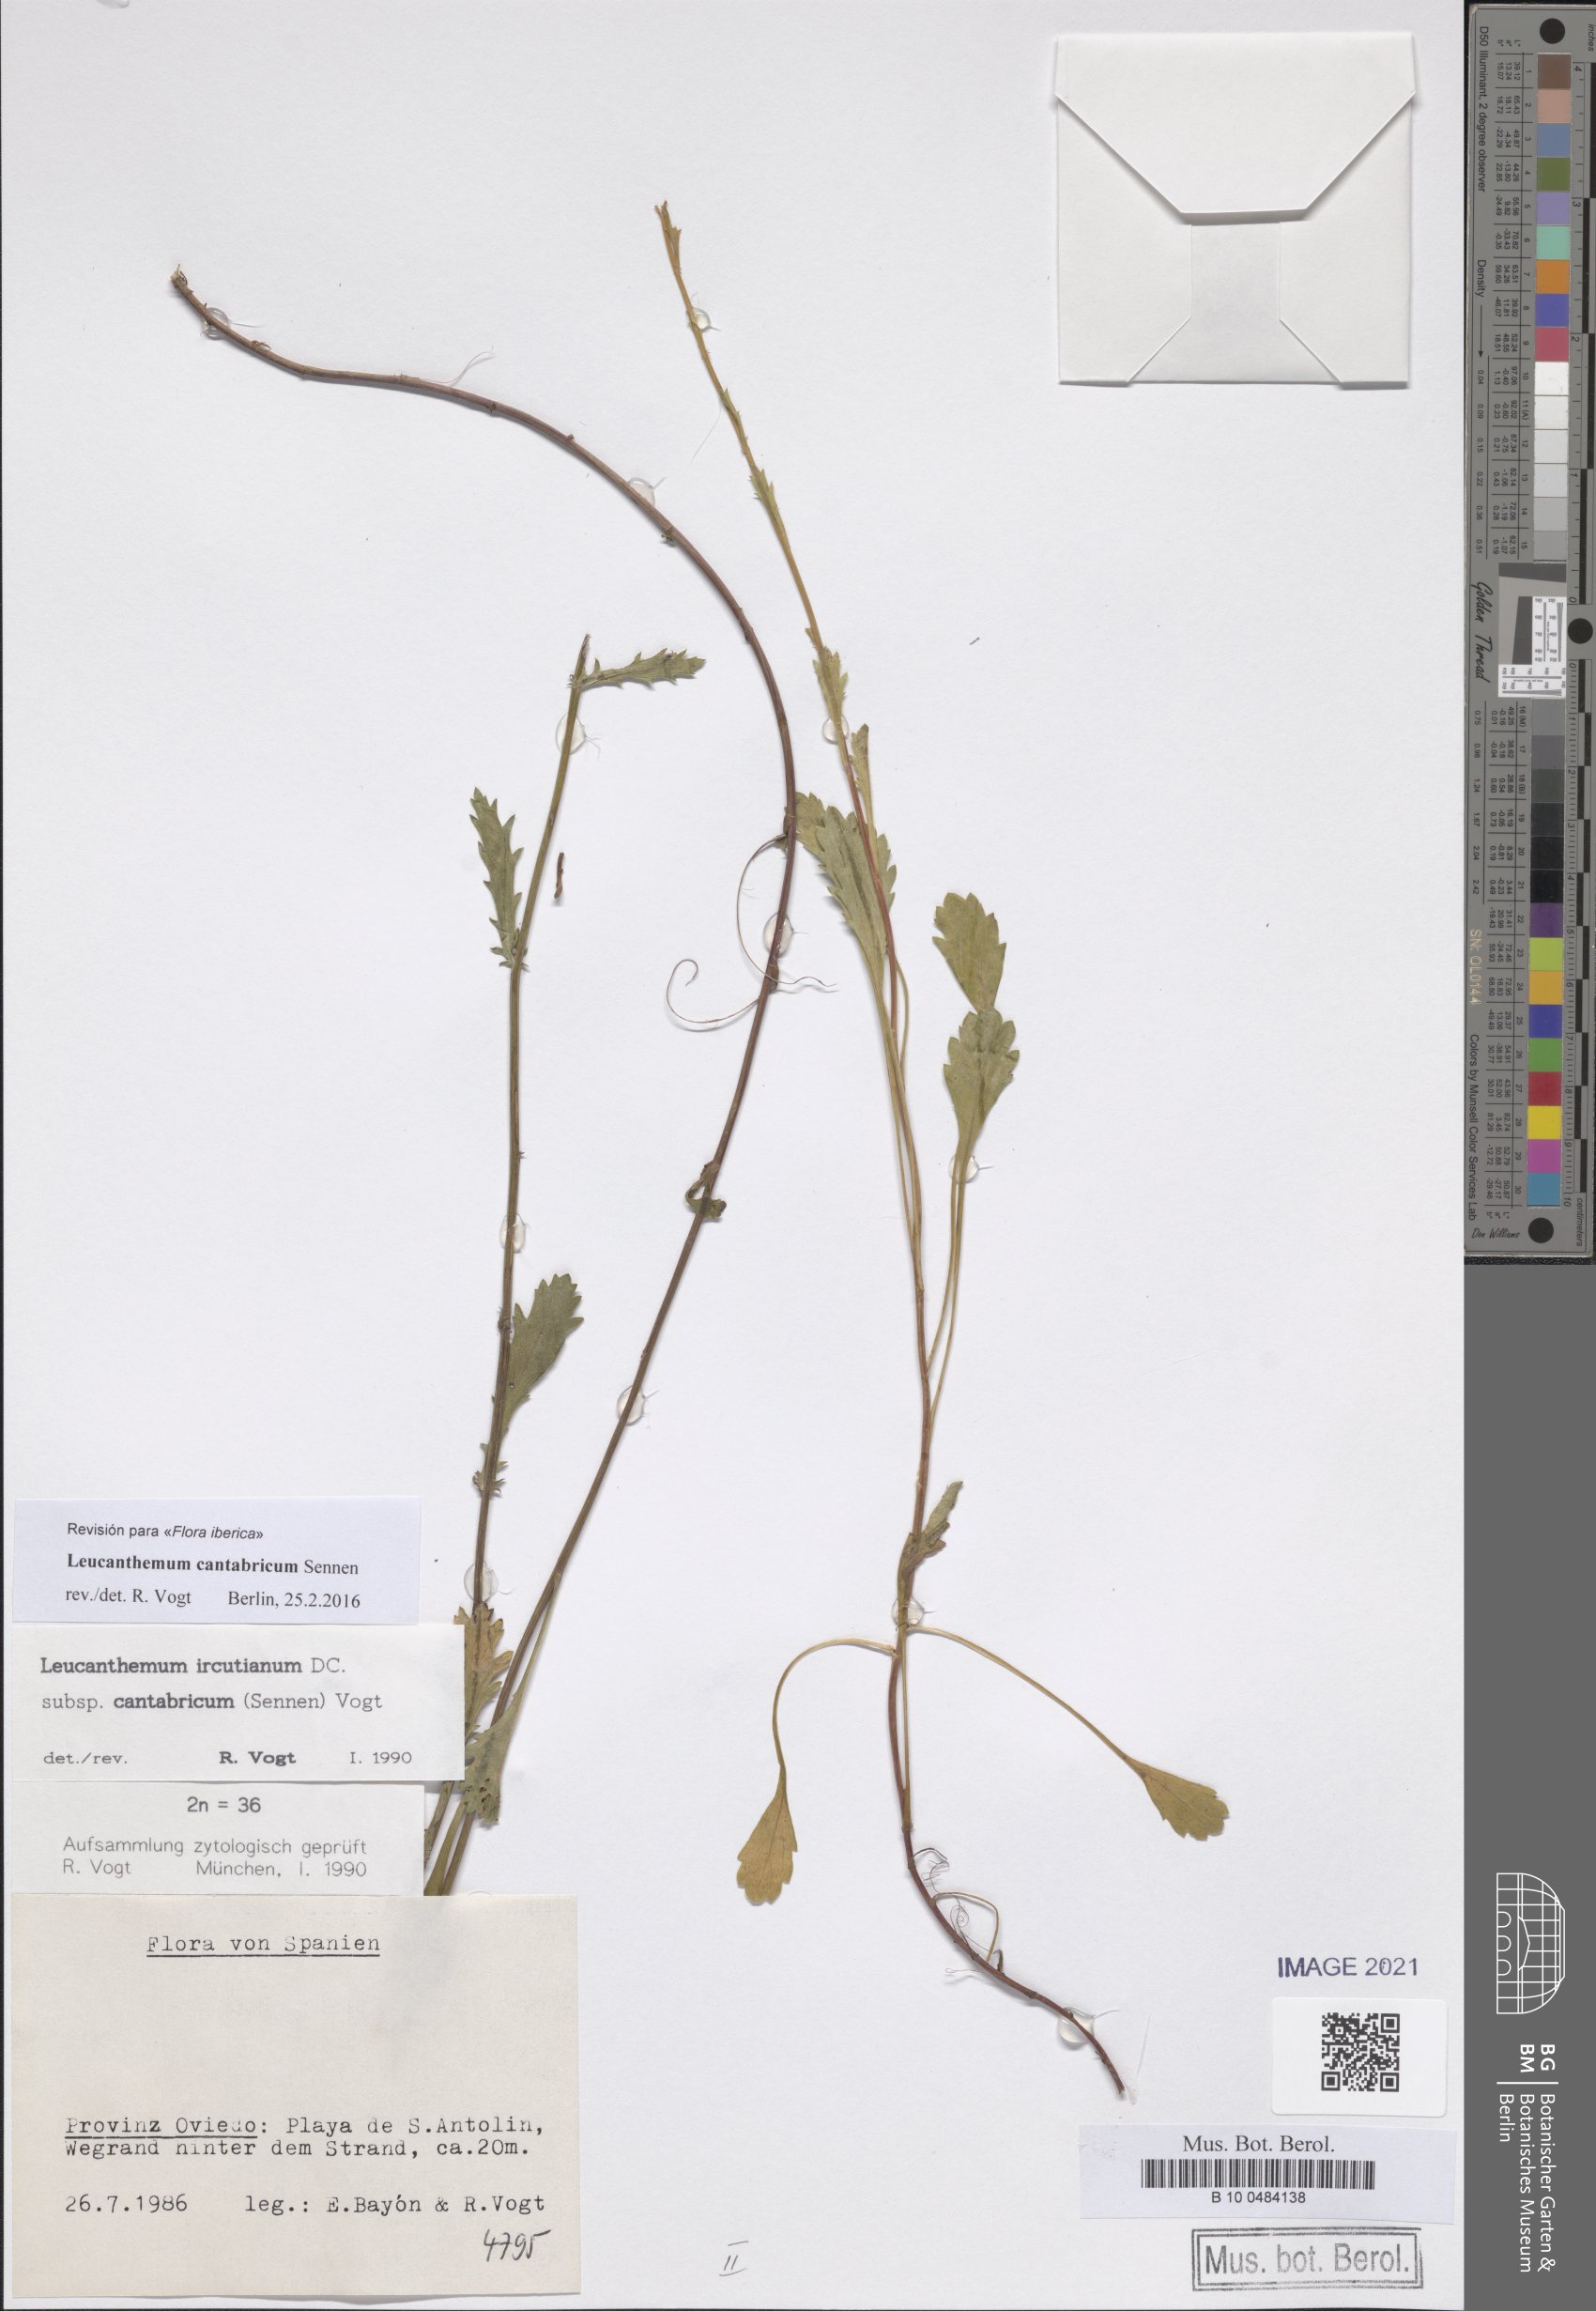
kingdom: Plantae
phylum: Tracheophyta
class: Magnoliopsida
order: Asterales
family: Asteraceae
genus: Leucanthemum
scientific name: Leucanthemum cantabricum
